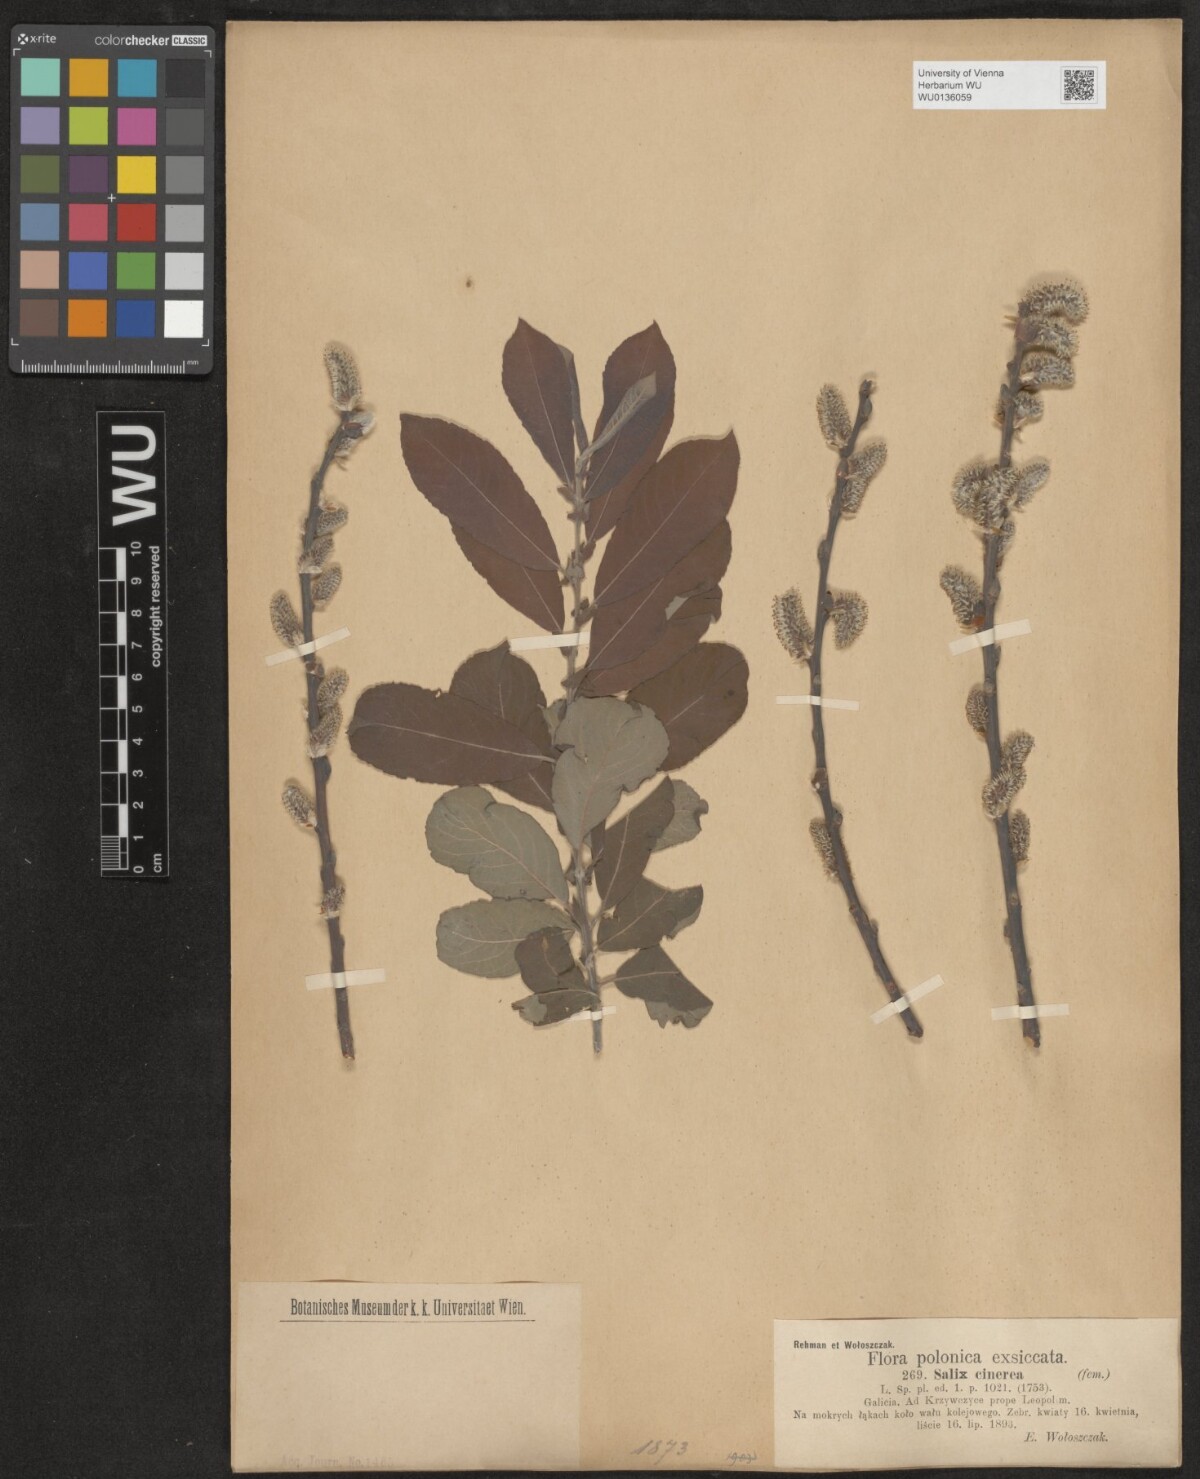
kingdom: Plantae
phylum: Tracheophyta
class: Magnoliopsida
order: Malpighiales
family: Salicaceae
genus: Salix
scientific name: Salix cinerea
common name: Common sallow
